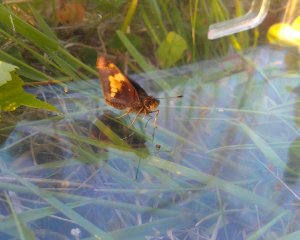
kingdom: Animalia
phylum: Arthropoda
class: Insecta
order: Lepidoptera
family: Hesperiidae
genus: Lon
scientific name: Lon hobomok
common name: Hobomok Skipper
